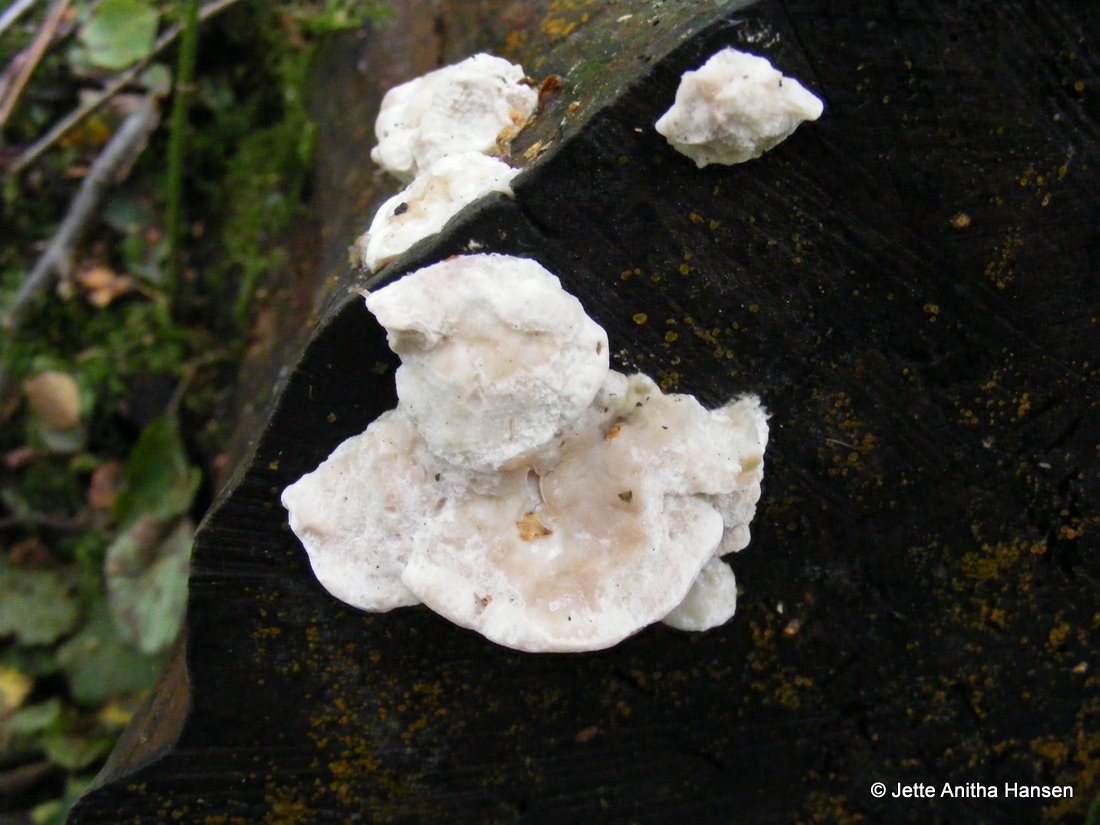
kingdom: Fungi
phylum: Basidiomycota
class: Agaricomycetes
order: Polyporales
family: Incrustoporiaceae
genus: Tyromyces
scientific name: Tyromyces lacteus
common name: mælkehvid kødporesvamp
